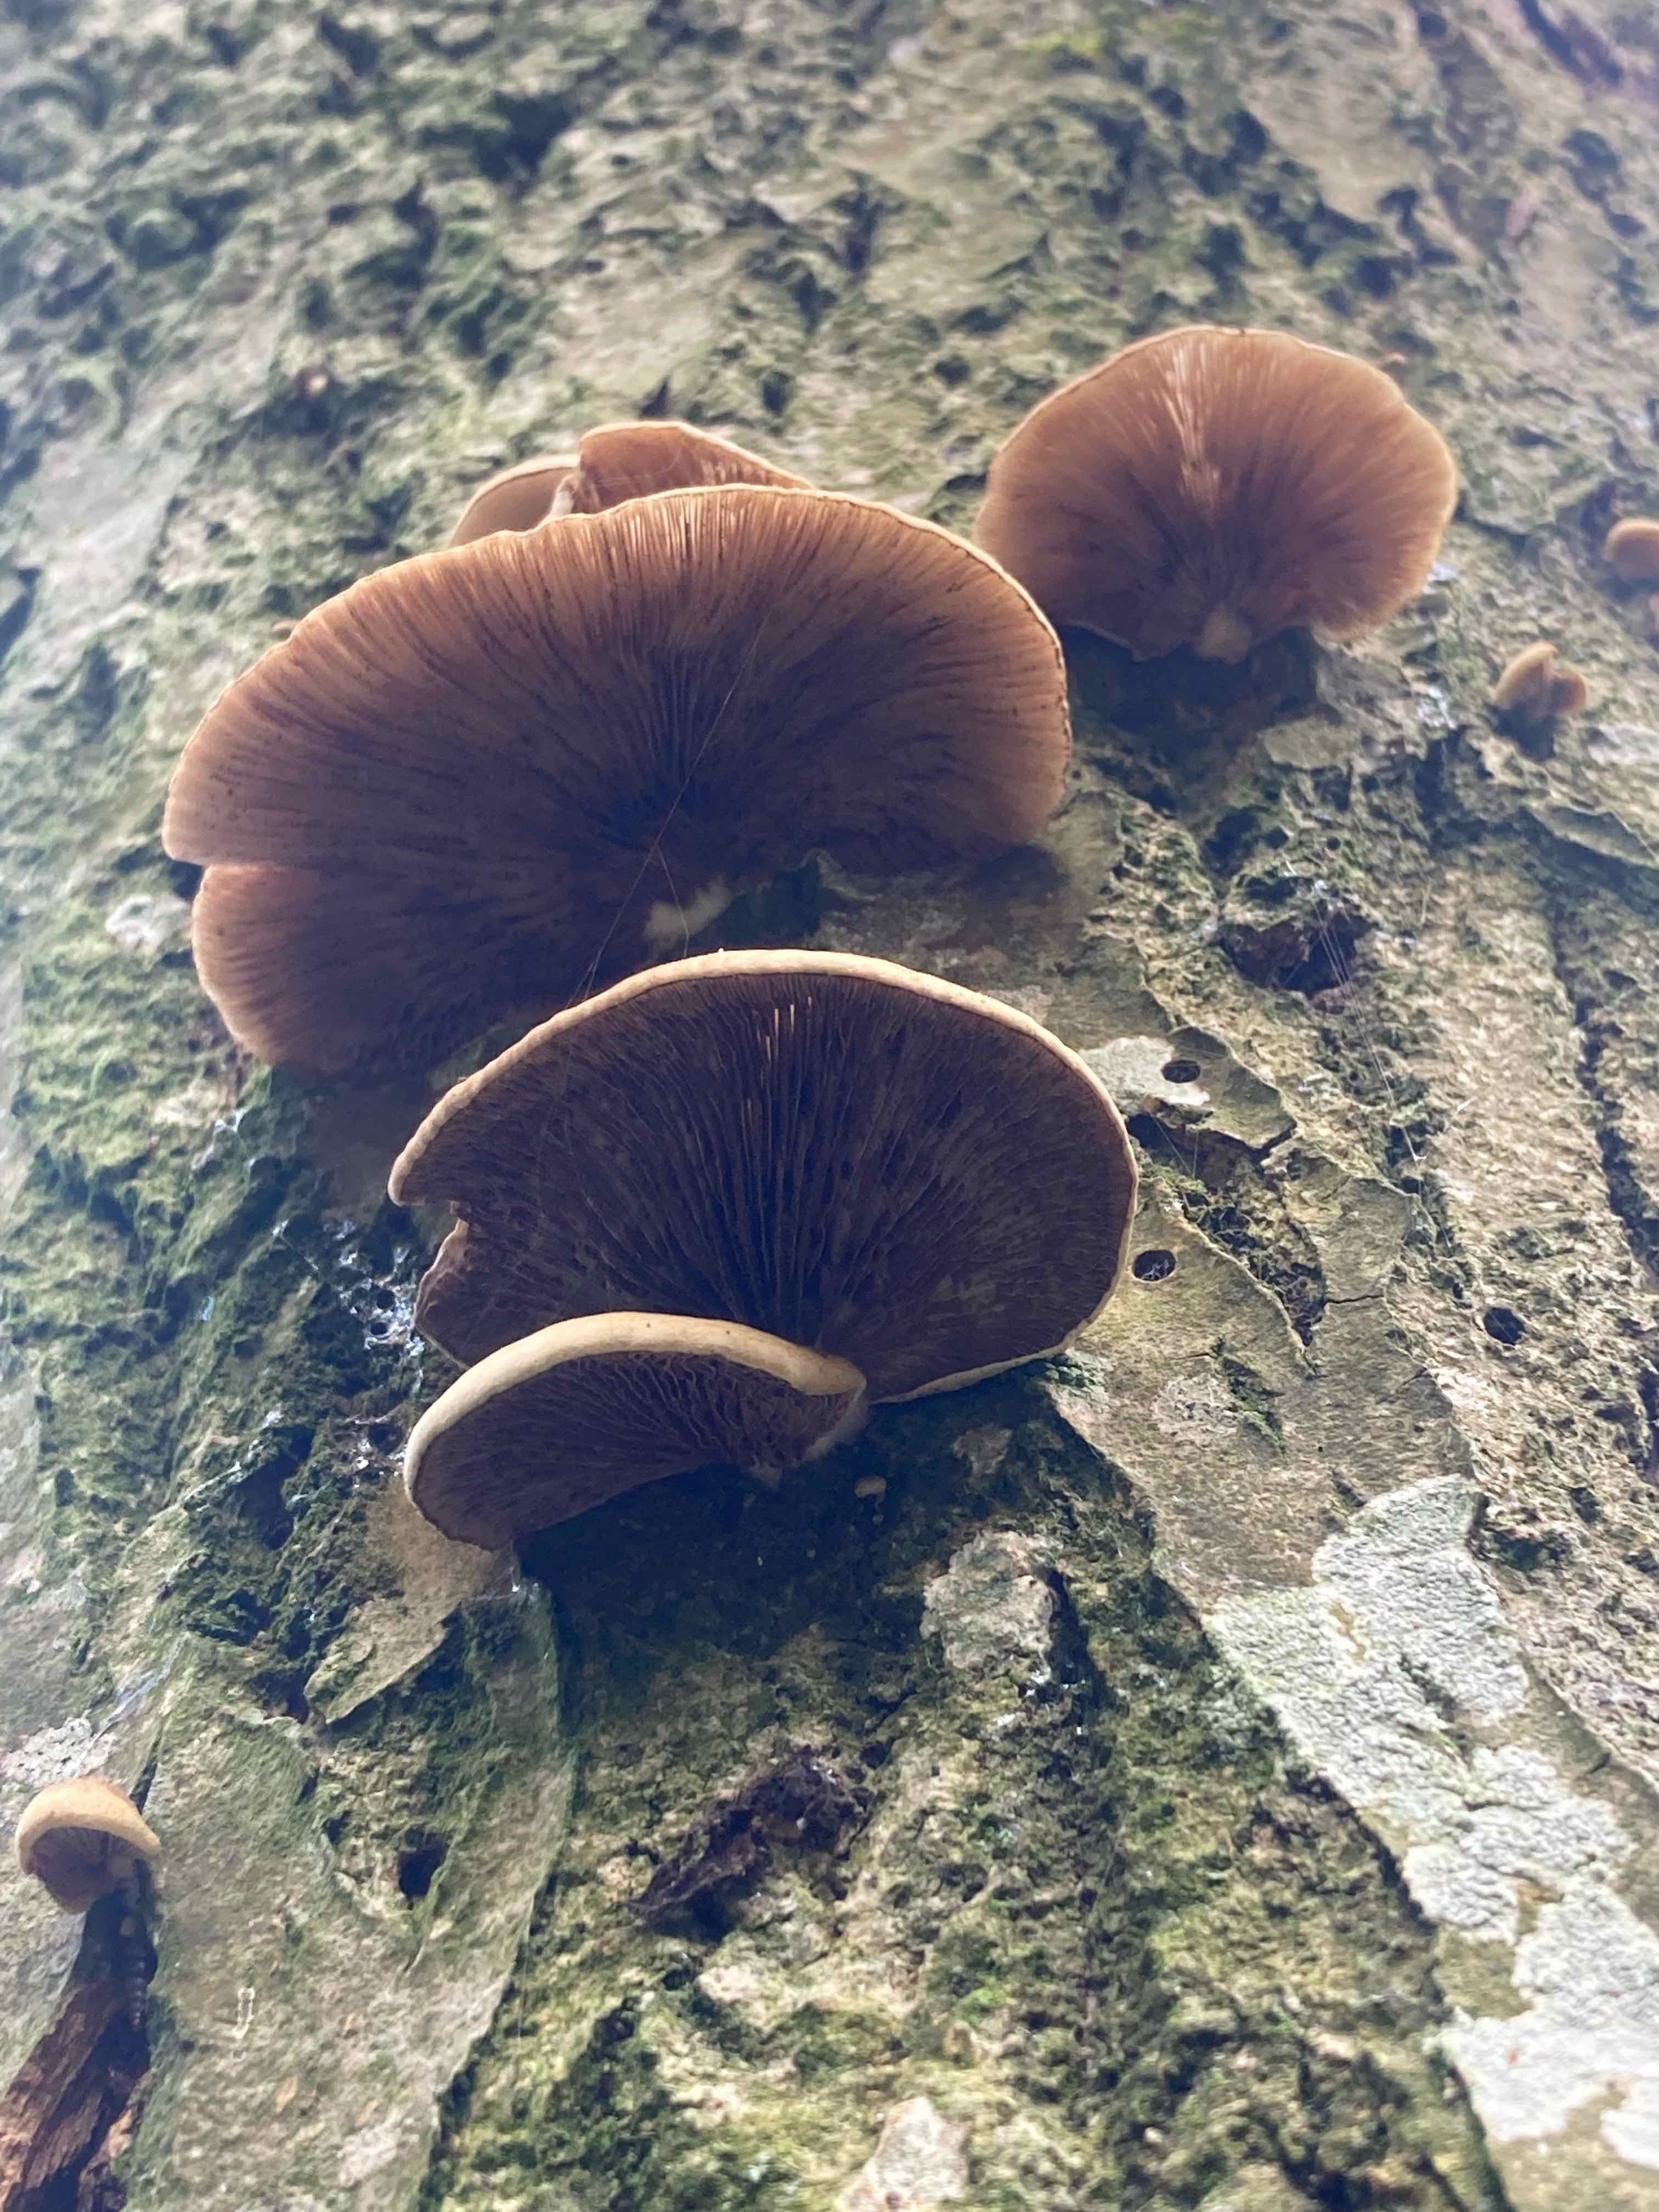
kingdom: Fungi
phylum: Basidiomycota
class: Agaricomycetes
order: Agaricales
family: Crepidotaceae
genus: Crepidotus
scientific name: Crepidotus mollis
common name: blød muslingesvamp
